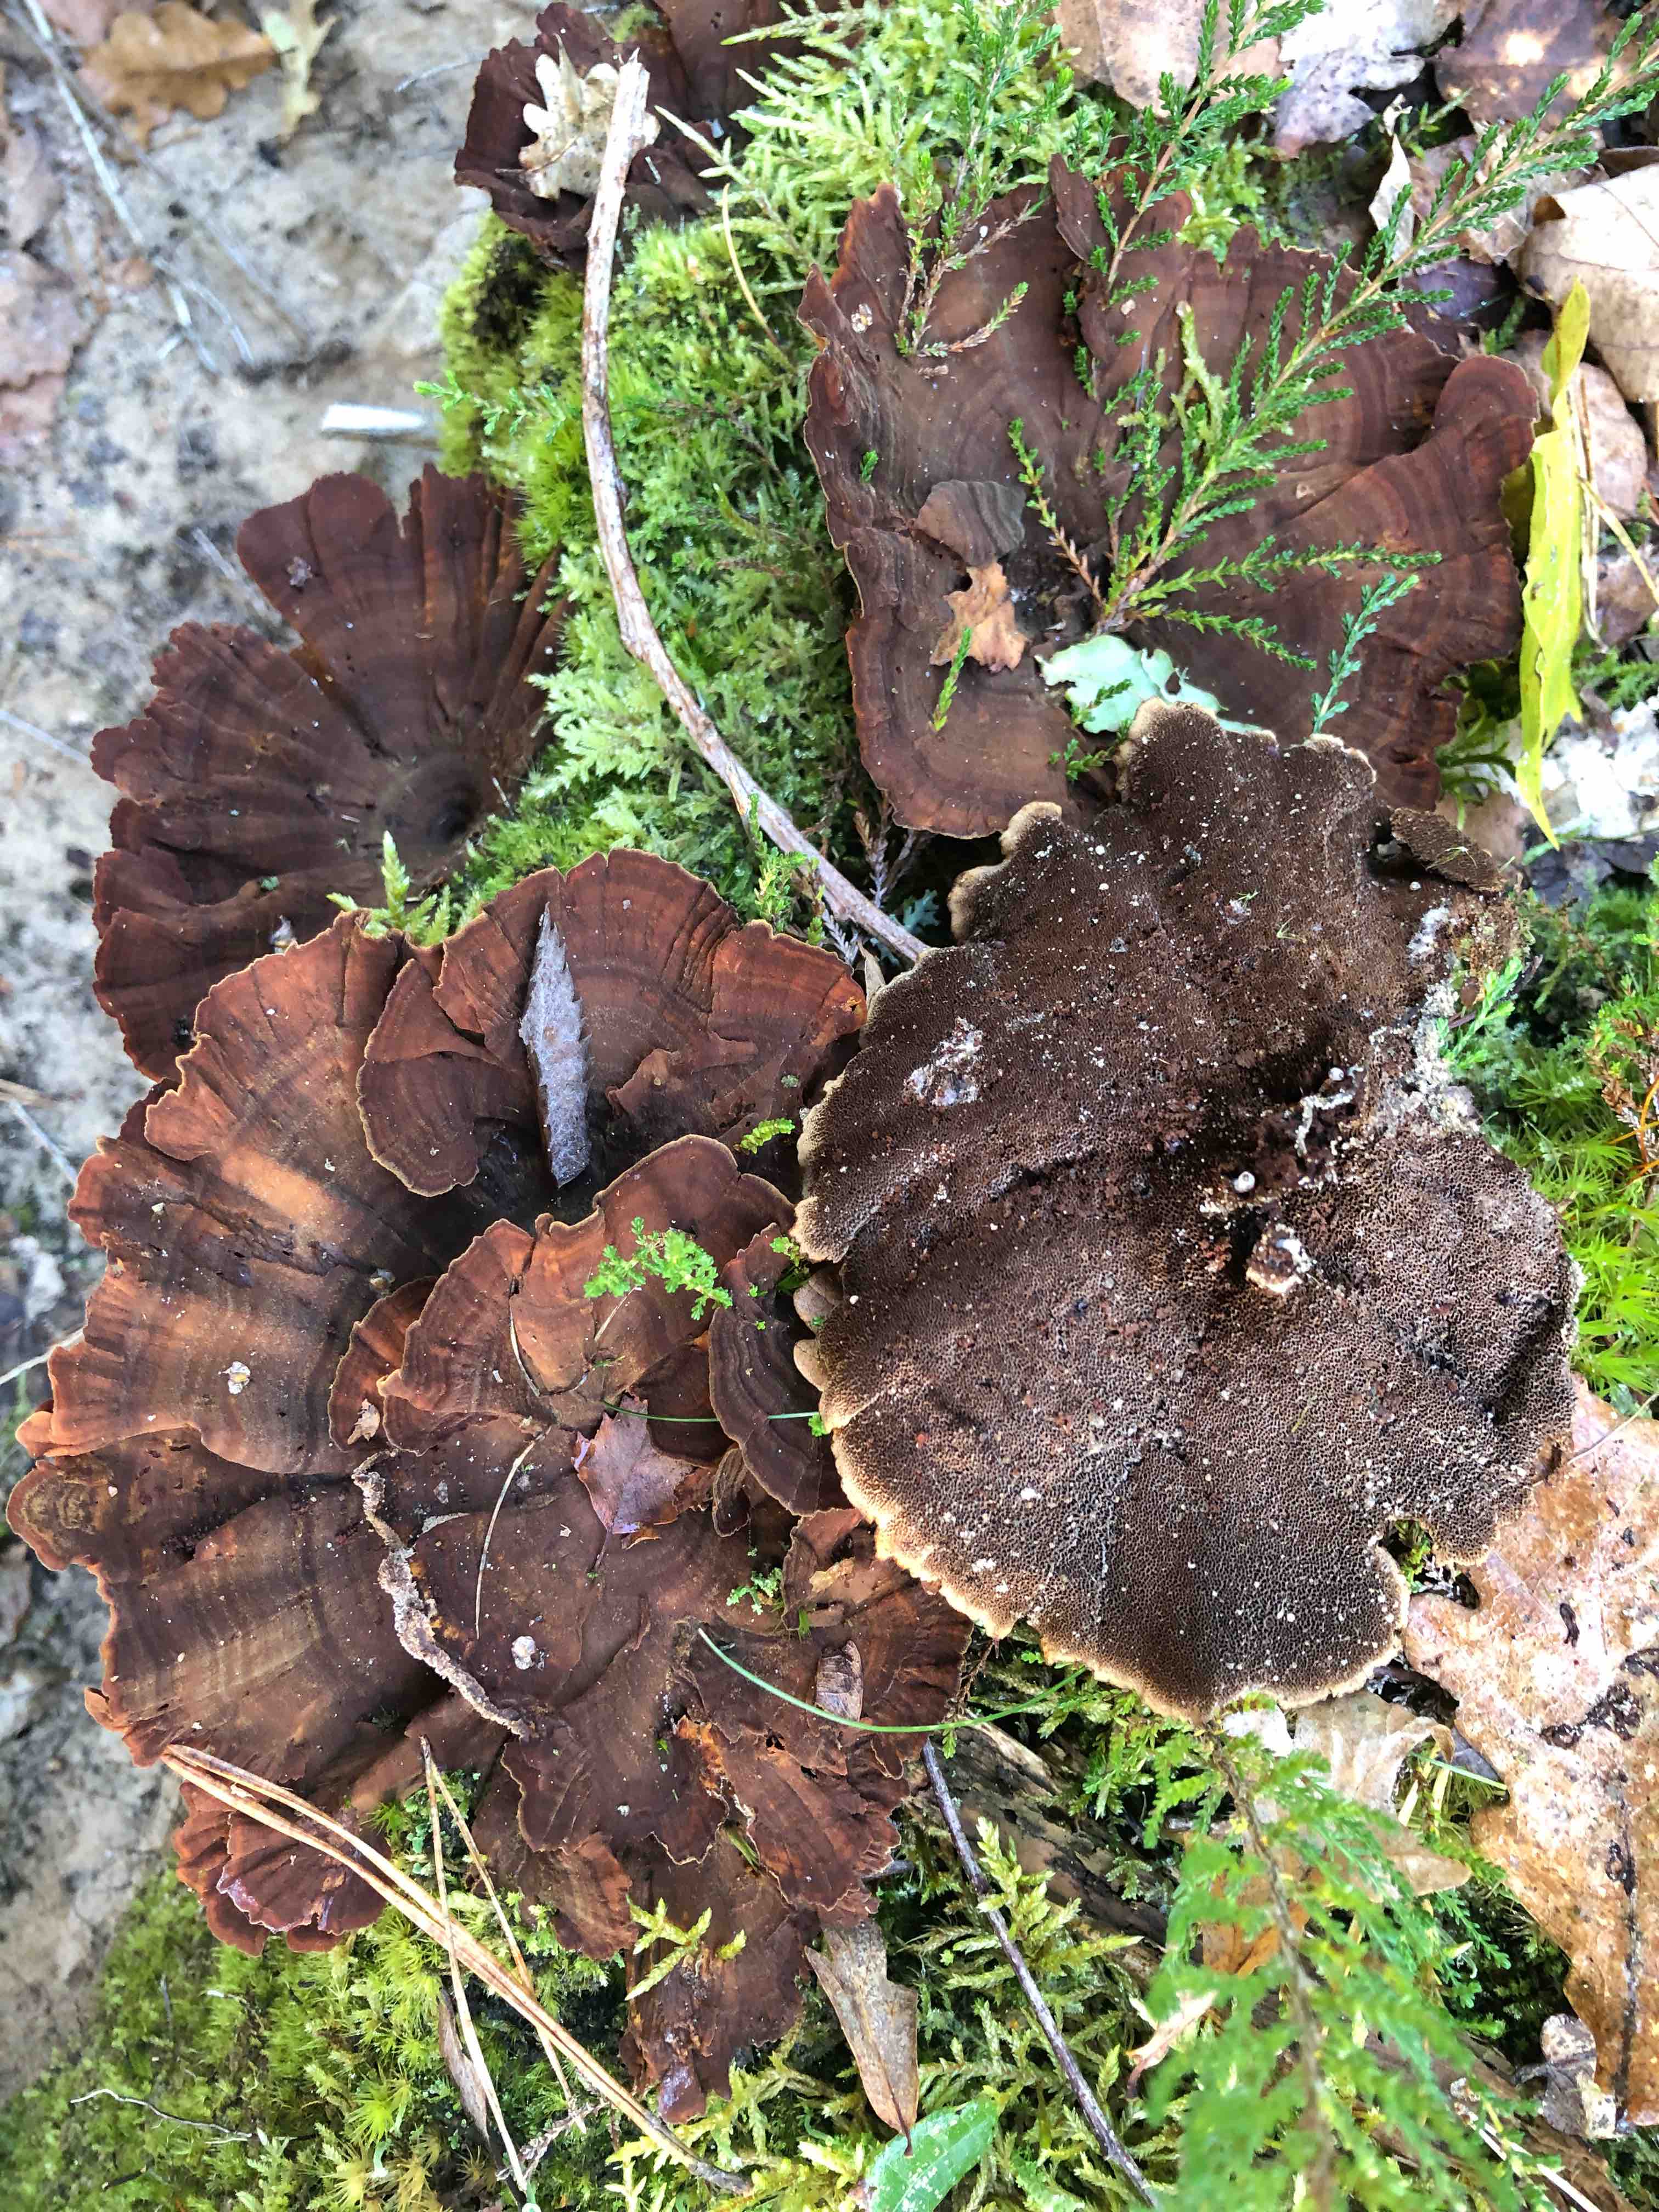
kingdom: Fungi
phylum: Basidiomycota
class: Agaricomycetes
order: Hymenochaetales
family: Hymenochaetaceae
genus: Coltricia
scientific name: Coltricia perennis
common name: almindelig sandporesvamp
